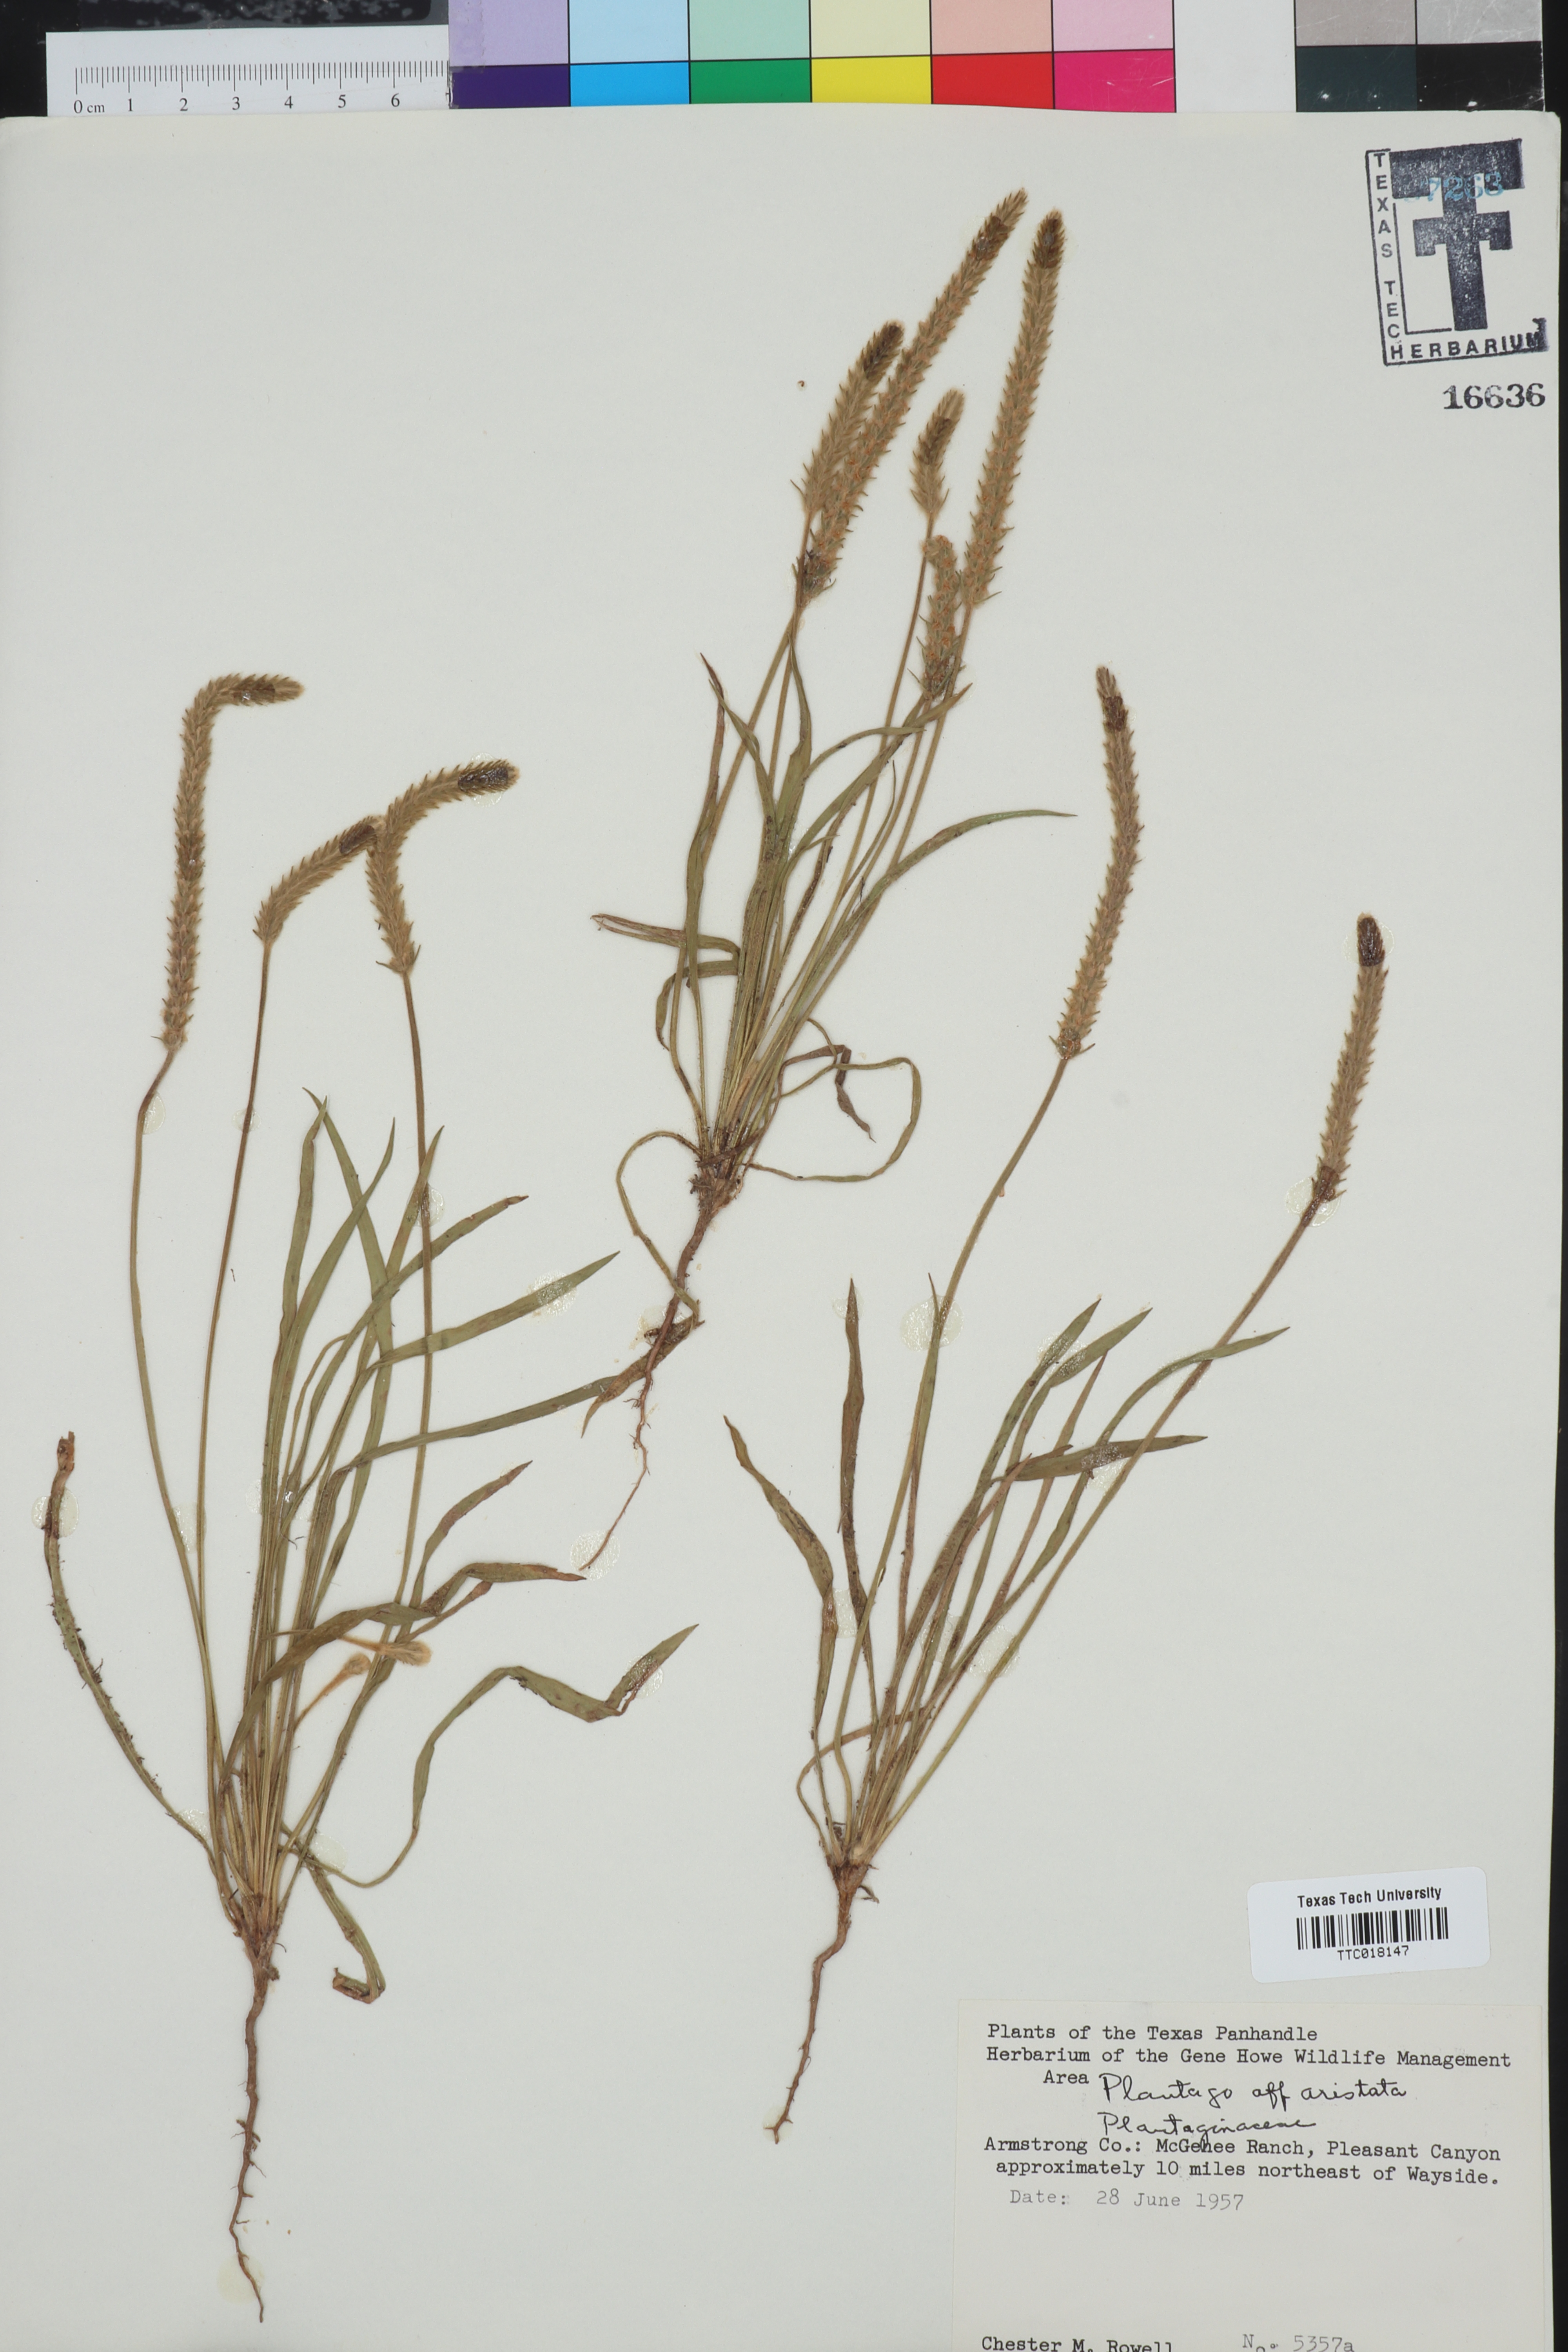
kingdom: Plantae
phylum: Tracheophyta
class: Magnoliopsida
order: Lamiales
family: Plantaginaceae
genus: Plantago
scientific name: Plantago aristata
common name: Bracted plantain
